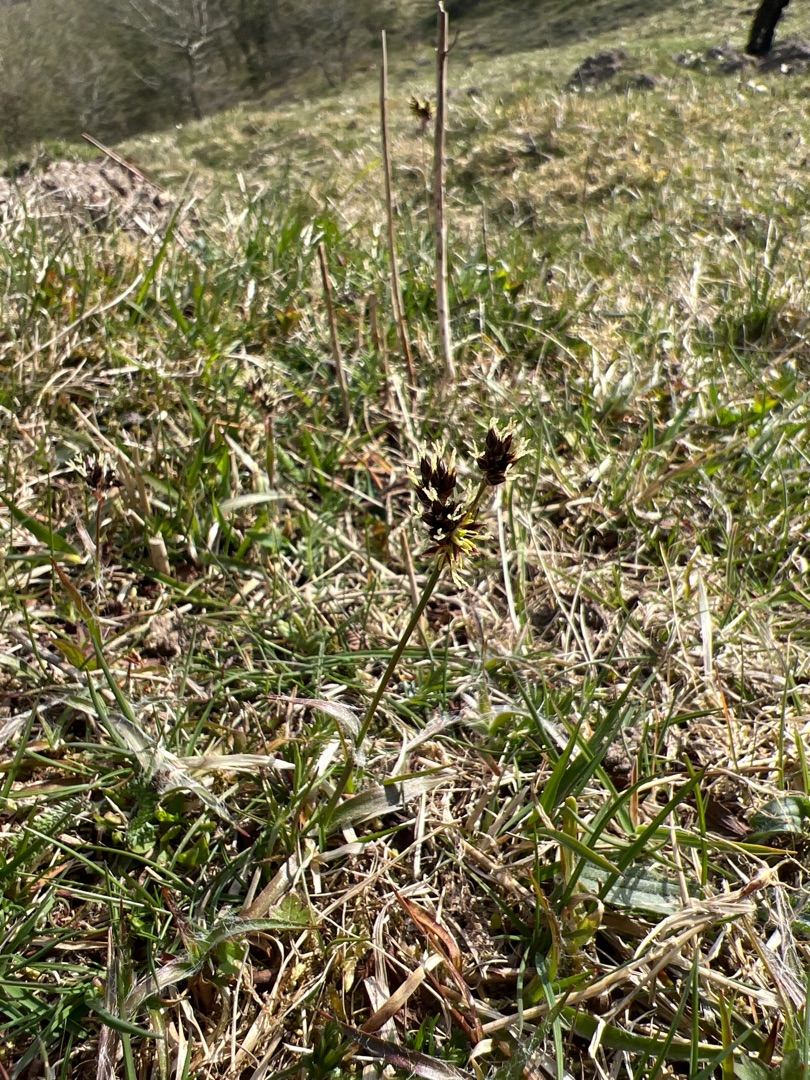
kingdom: Plantae
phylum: Tracheophyta
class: Liliopsida
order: Poales
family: Juncaceae
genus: Luzula
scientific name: Luzula campestris
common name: Mark-frytle
